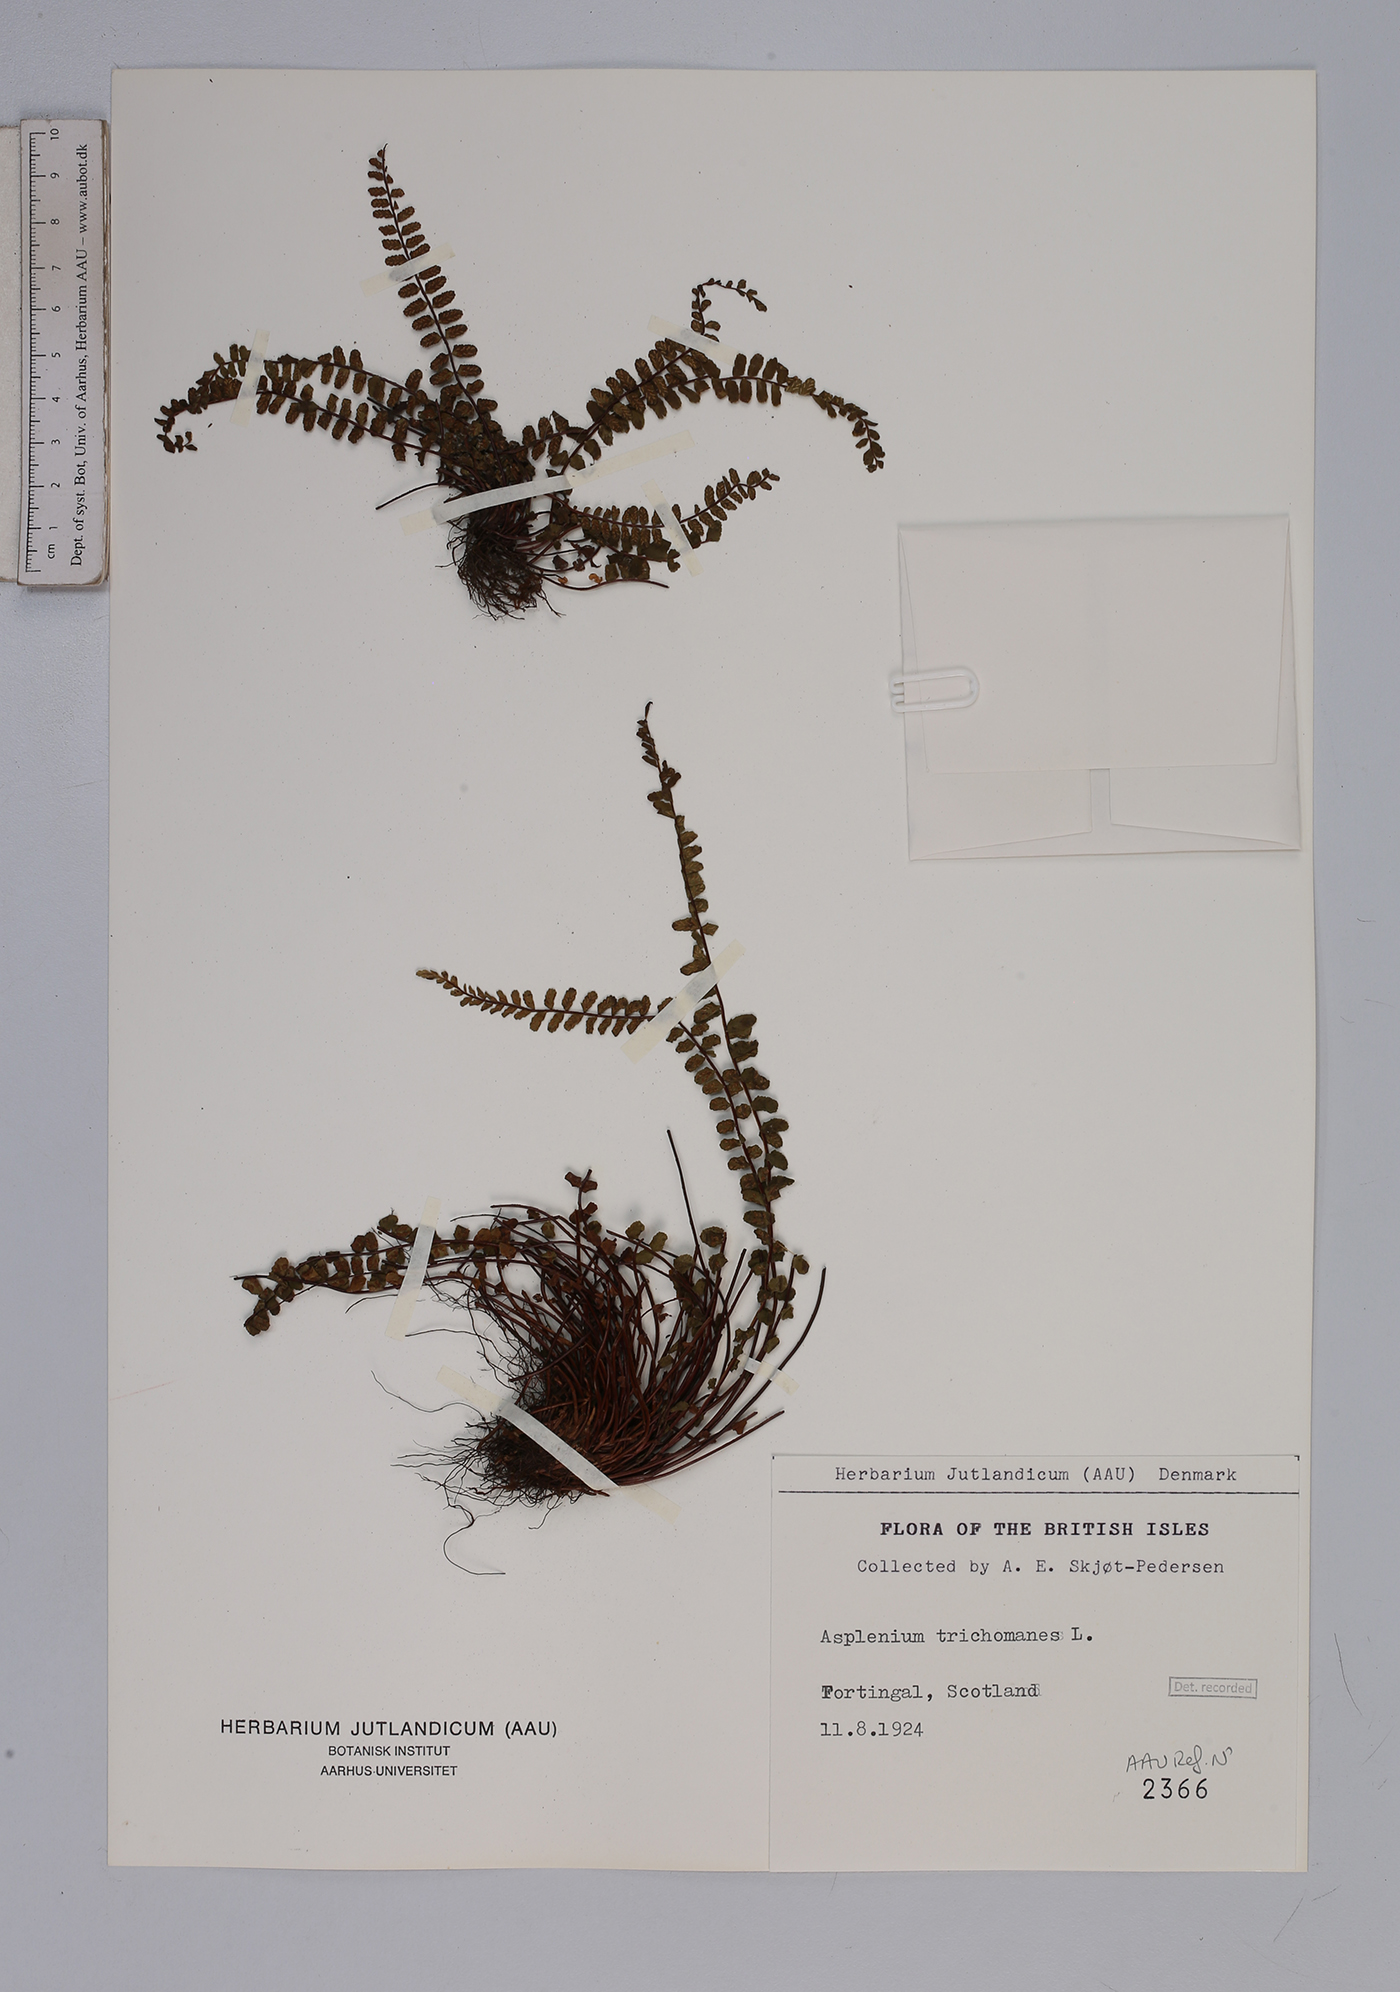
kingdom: Plantae
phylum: Tracheophyta
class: Polypodiopsida
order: Polypodiales
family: Aspleniaceae
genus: Asplenium
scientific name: Asplenium trichomanes
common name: Maidenhair spleenwort
